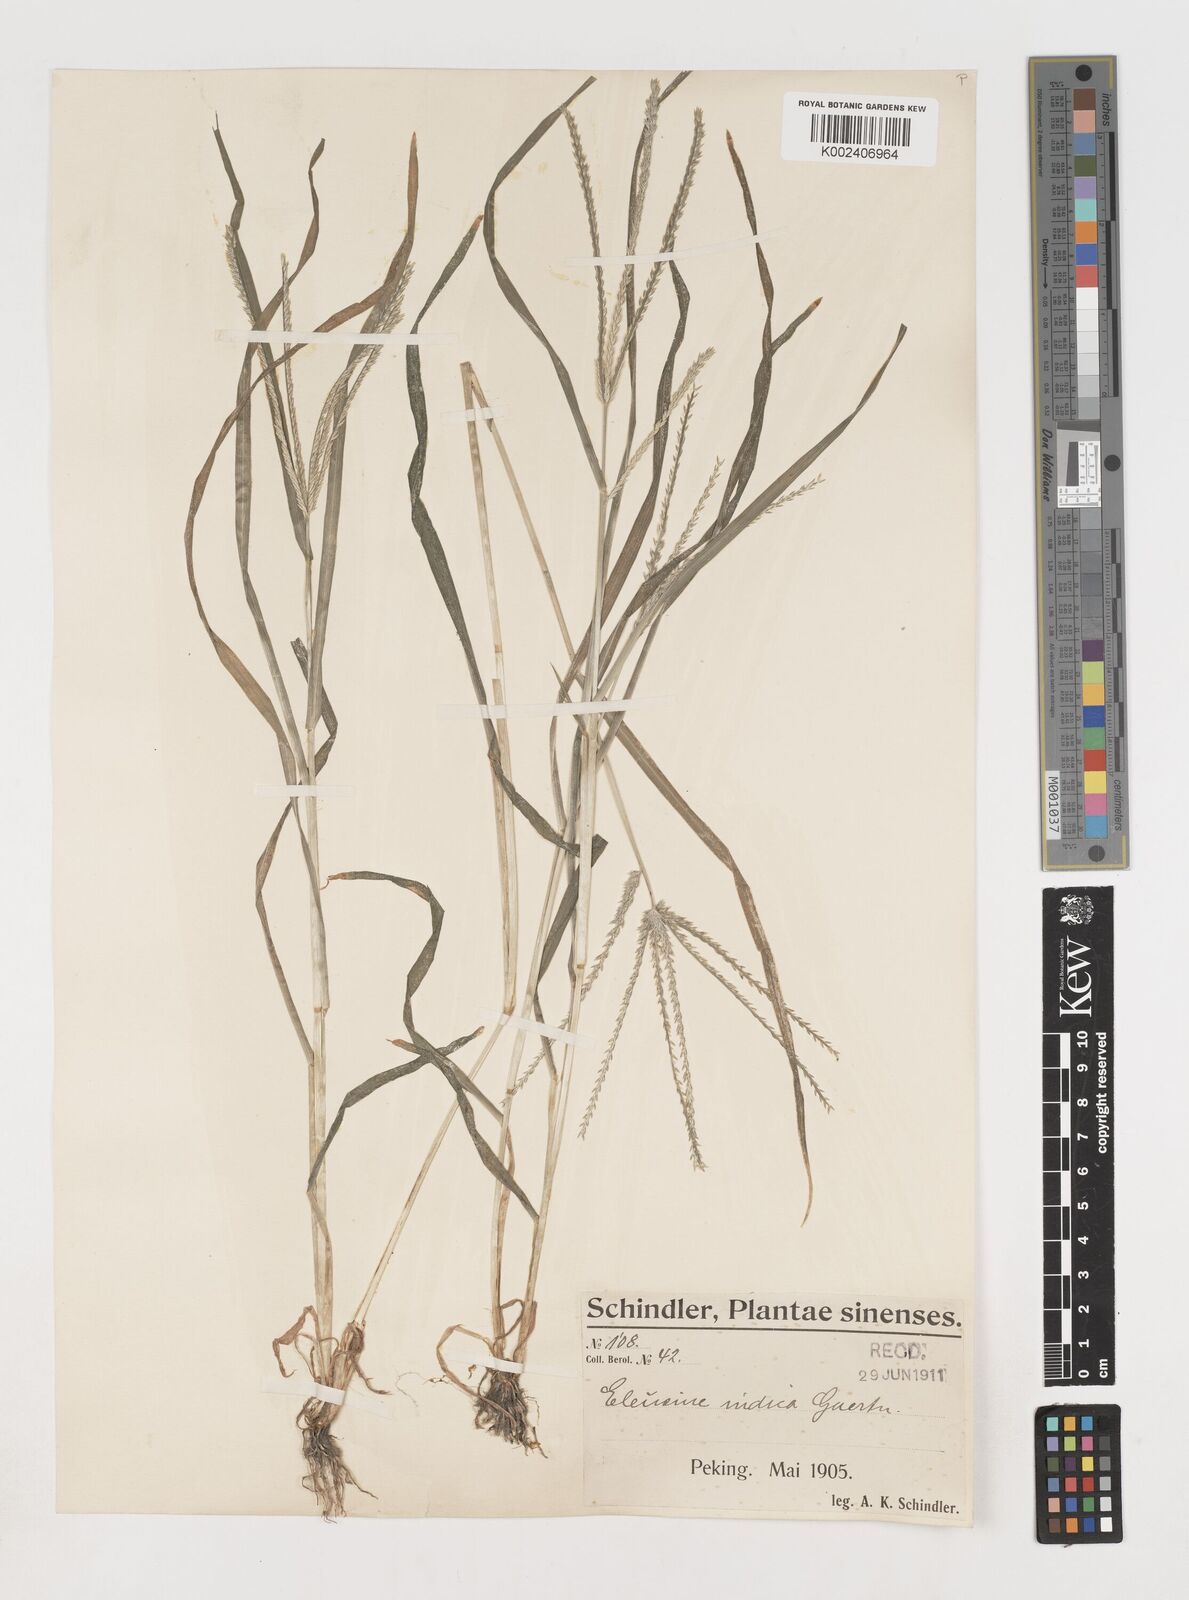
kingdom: Plantae
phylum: Tracheophyta
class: Liliopsida
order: Poales
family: Poaceae
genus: Eleusine
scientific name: Eleusine indica
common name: Yard-grass
